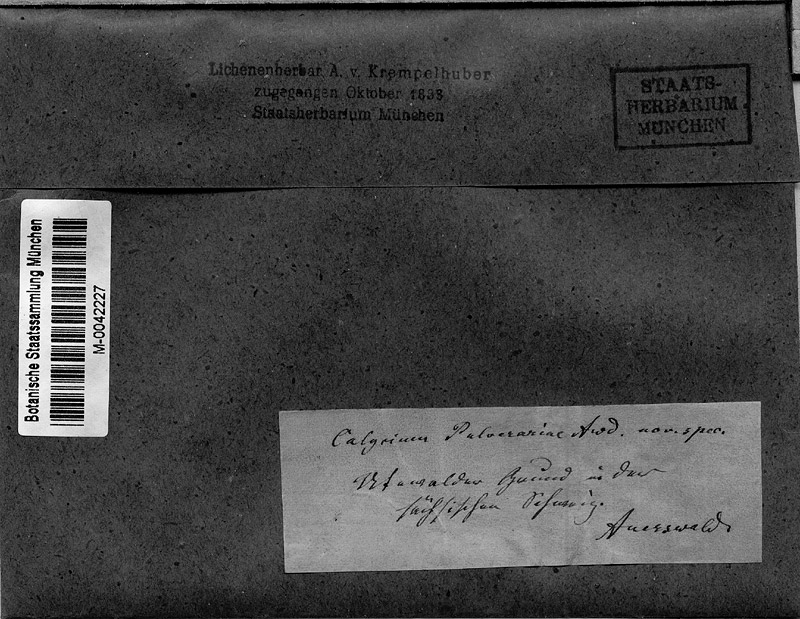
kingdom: Fungi
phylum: Ascomycota
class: Lecanoromycetes
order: Pertusariales
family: Microcaliciaceae
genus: Microcalicium
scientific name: Microcalicium arenarium
